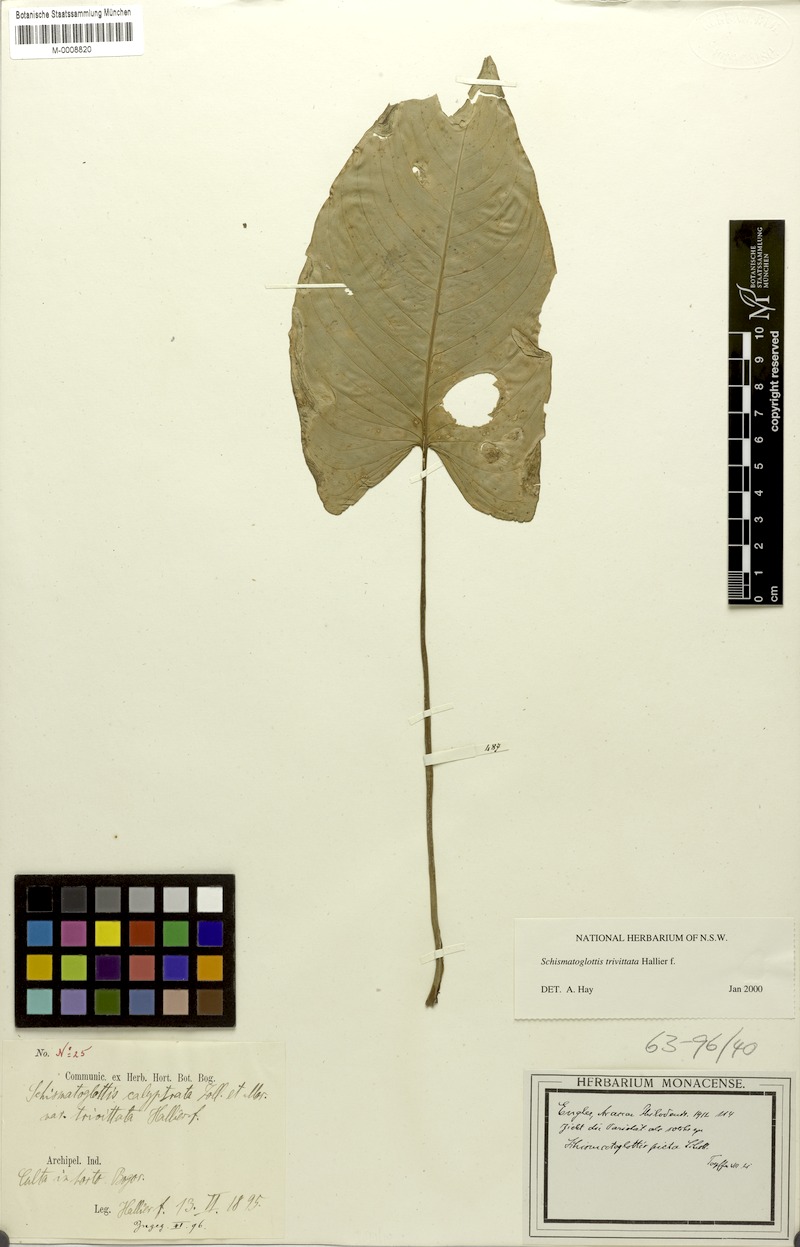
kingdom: Plantae
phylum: Tracheophyta
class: Liliopsida
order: Alismatales
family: Araceae
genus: Schismatoglottis
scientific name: Schismatoglottis trivittata
